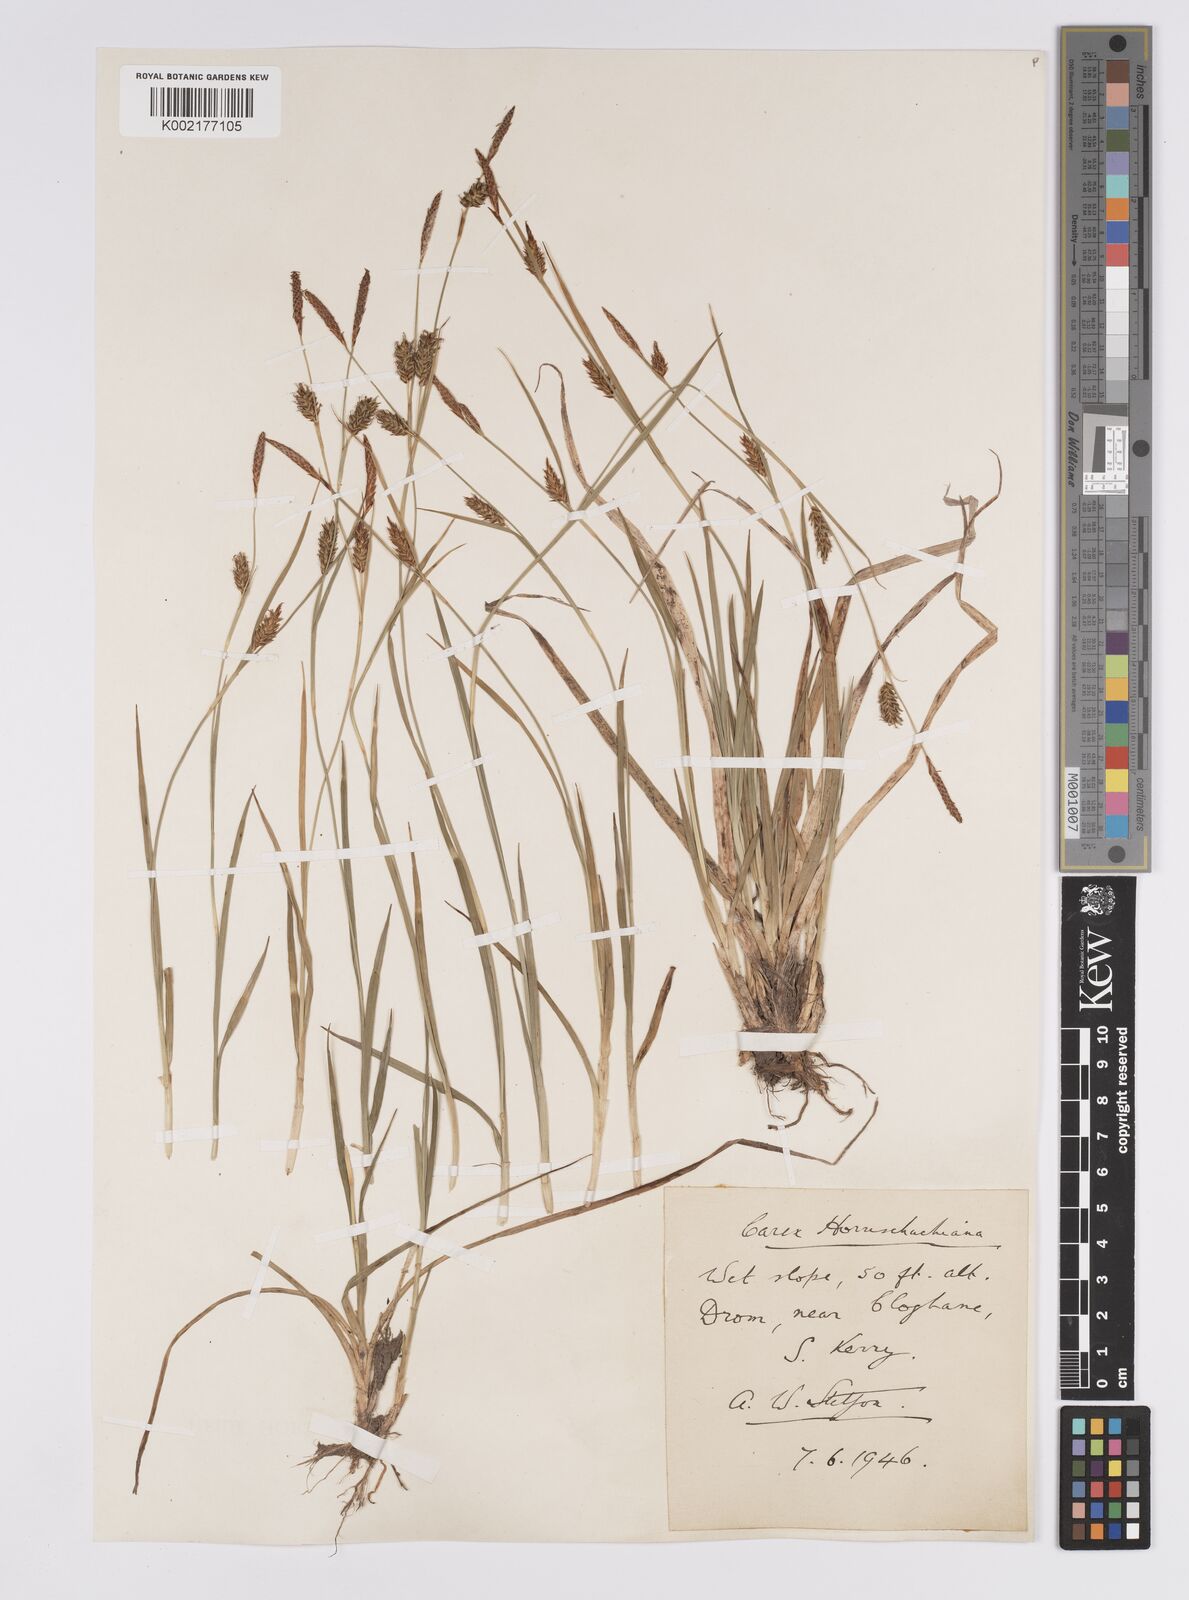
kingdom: Plantae
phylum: Tracheophyta
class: Liliopsida
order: Poales
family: Cyperaceae
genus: Carex
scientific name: Carex hostiana
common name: Tawny sedge
